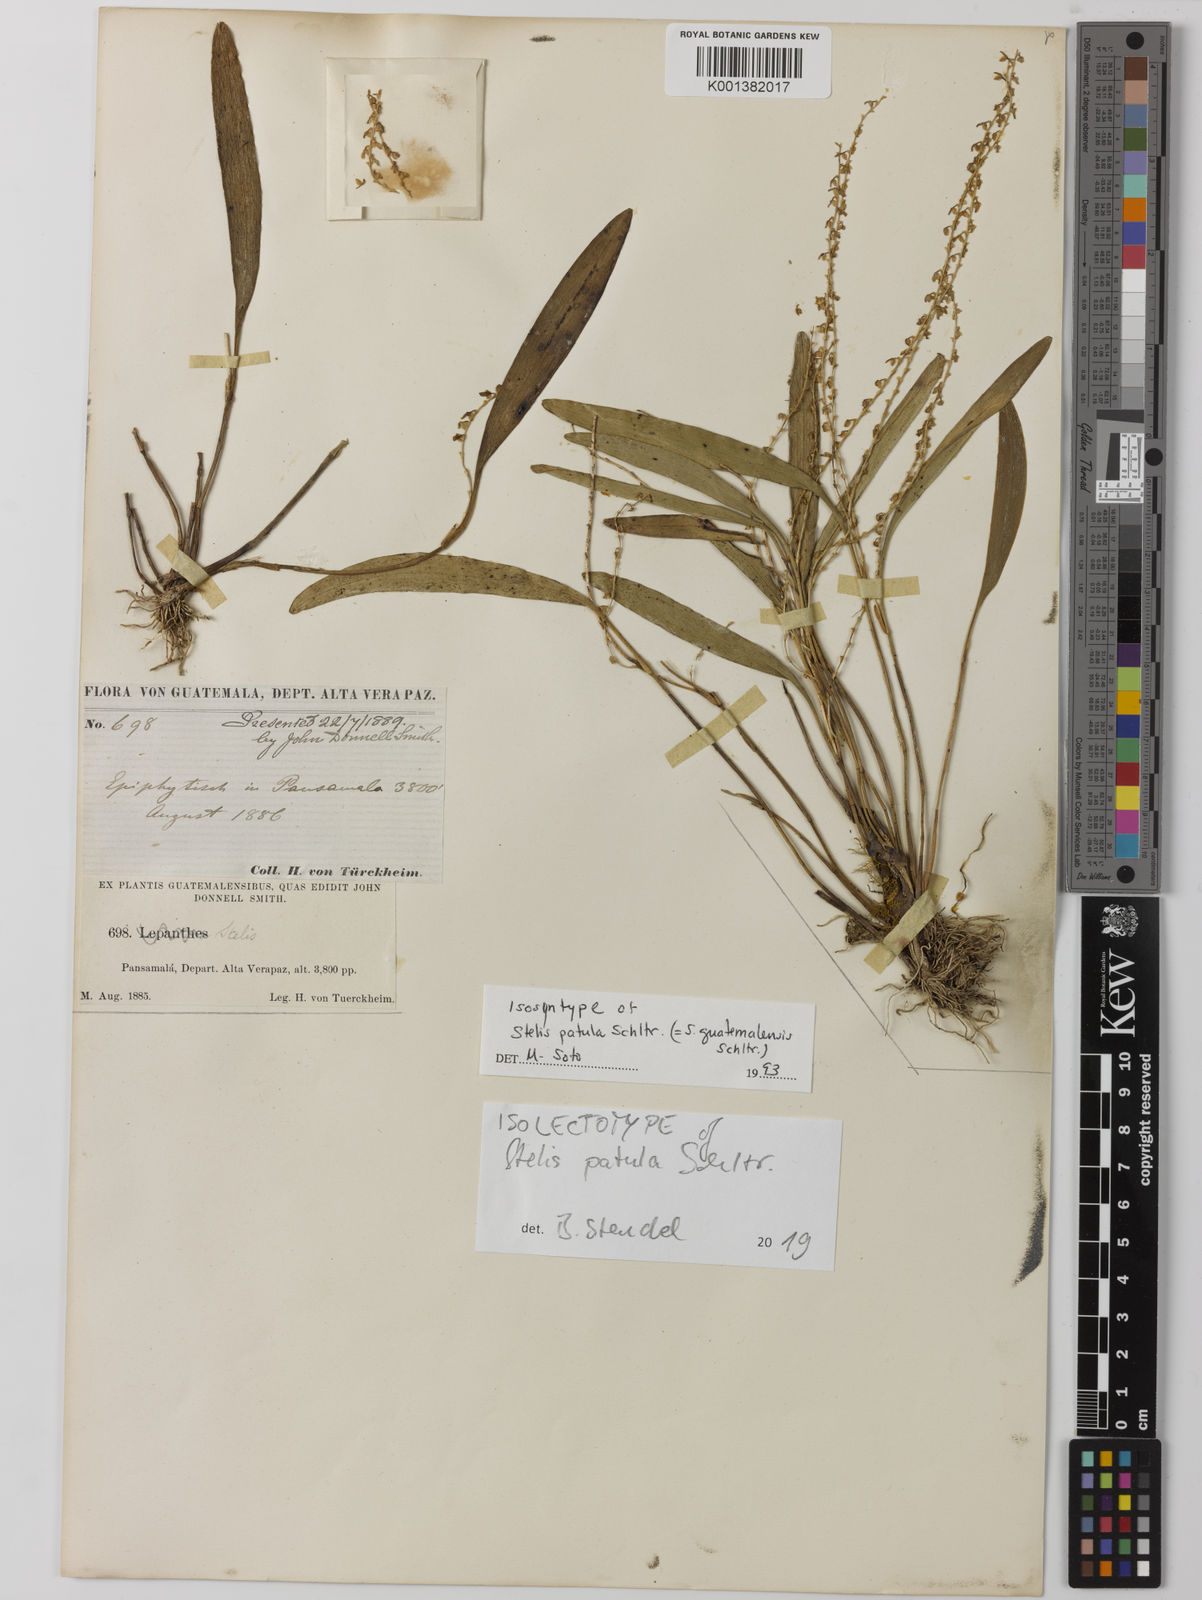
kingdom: Plantae
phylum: Tracheophyta
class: Liliopsida
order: Asparagales
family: Orchidaceae
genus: Stelis
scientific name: Stelis pardipes
